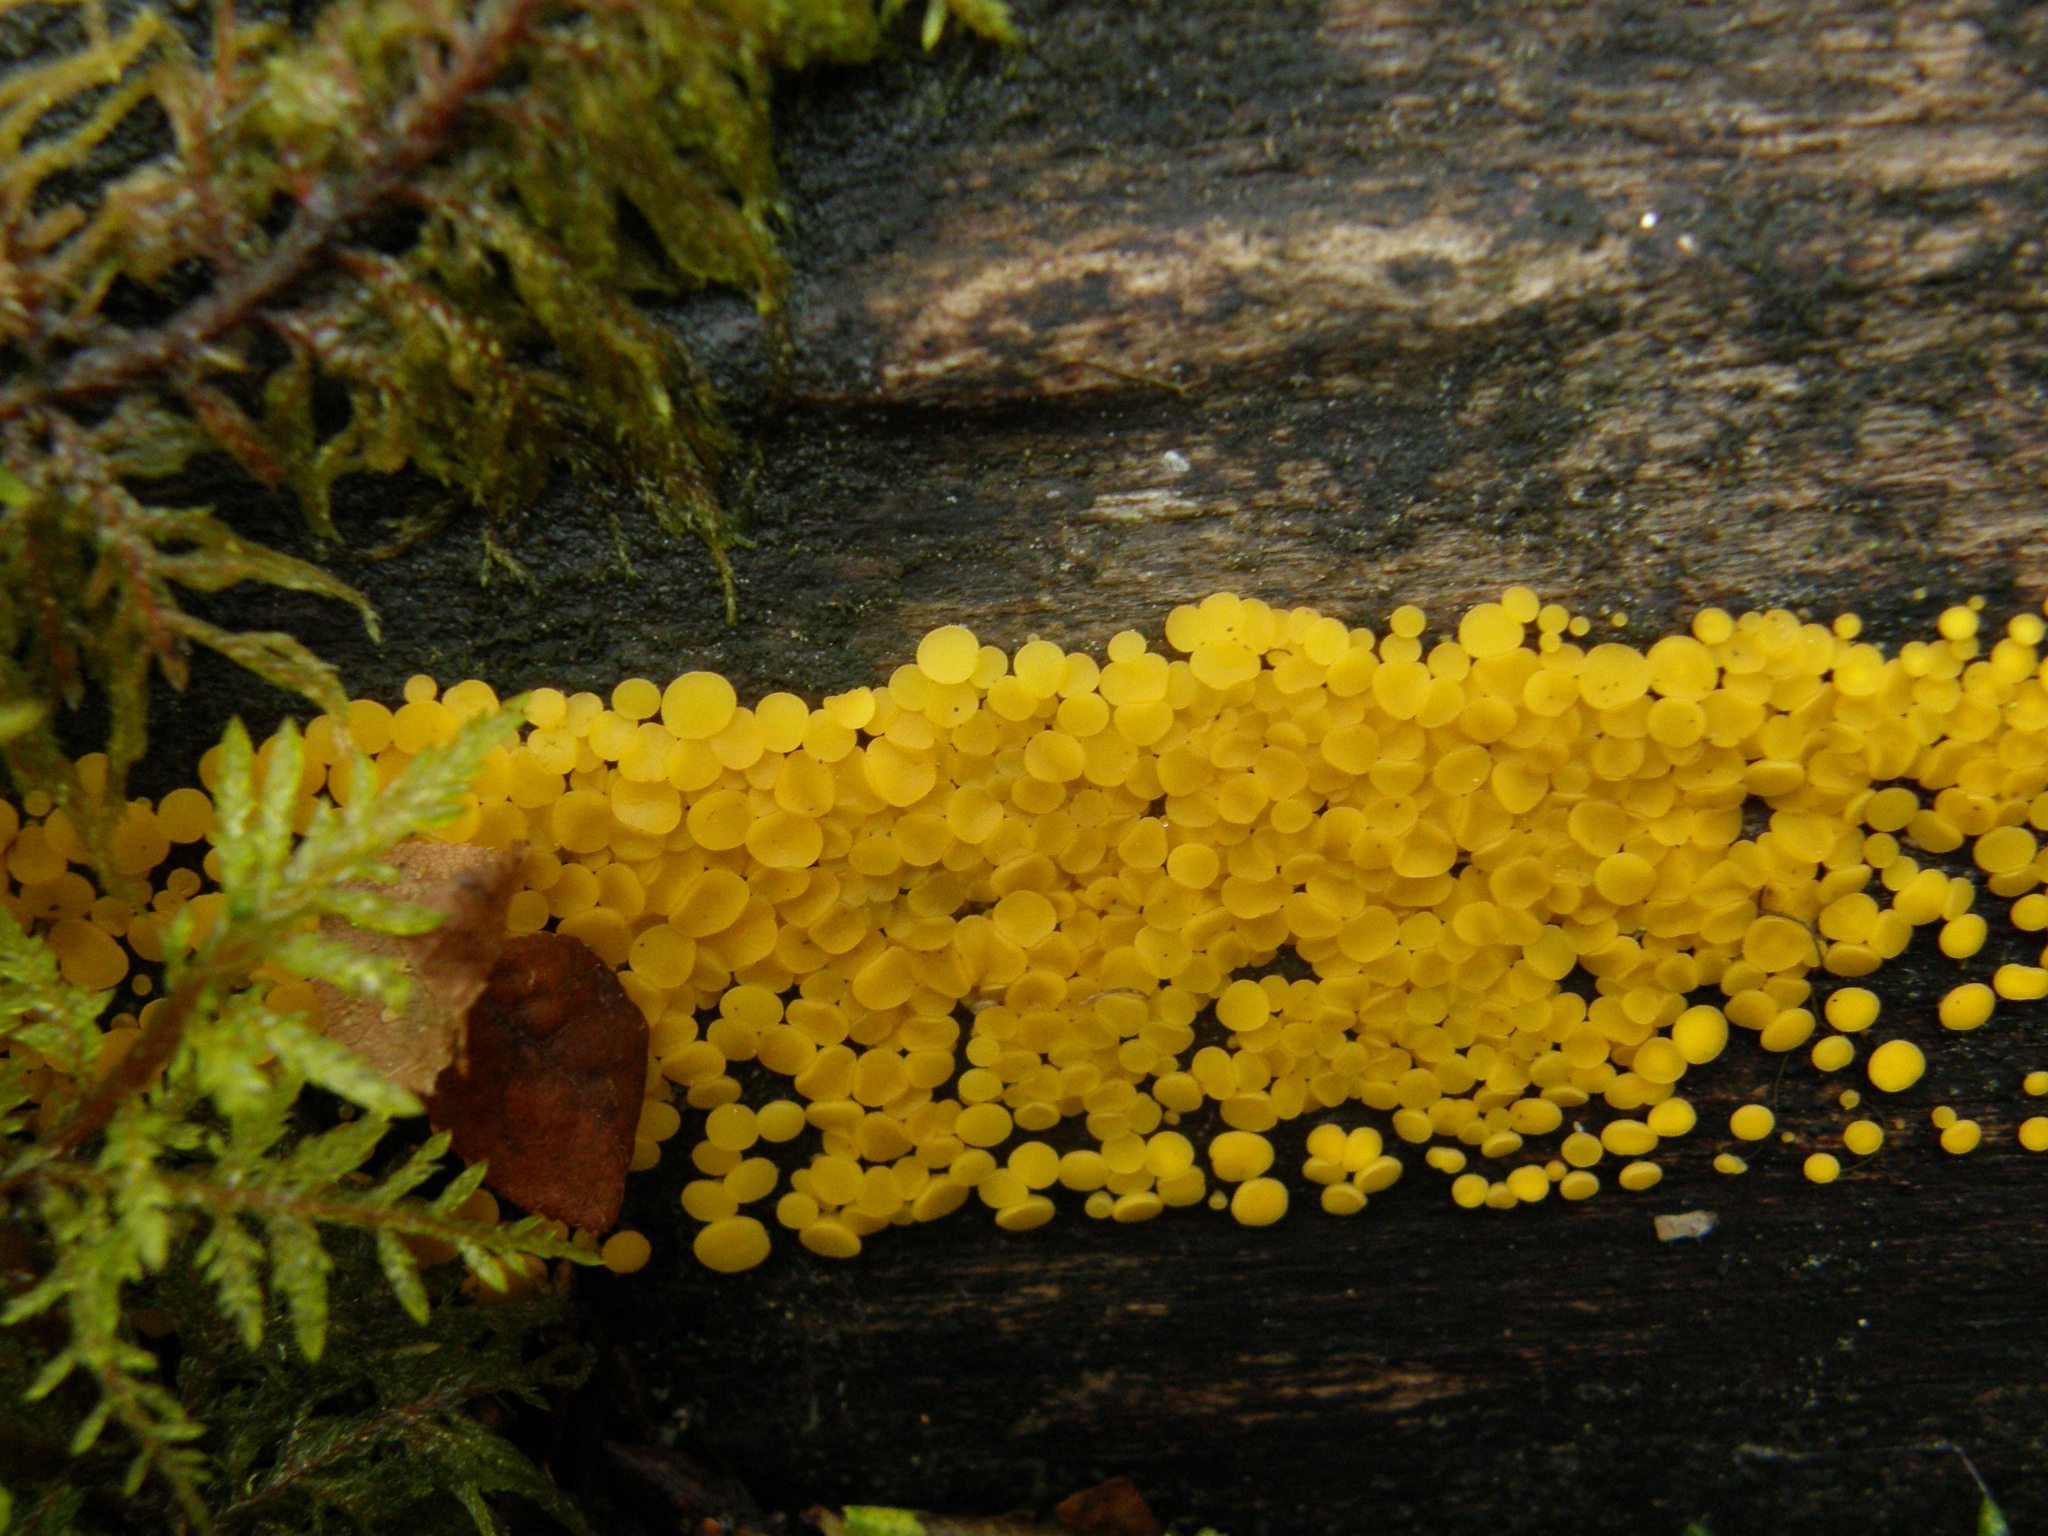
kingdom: Fungi
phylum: Ascomycota
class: Leotiomycetes
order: Helotiales
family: Pezizellaceae
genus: Calycina
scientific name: Calycina citrina
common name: Yellow fairy cups
